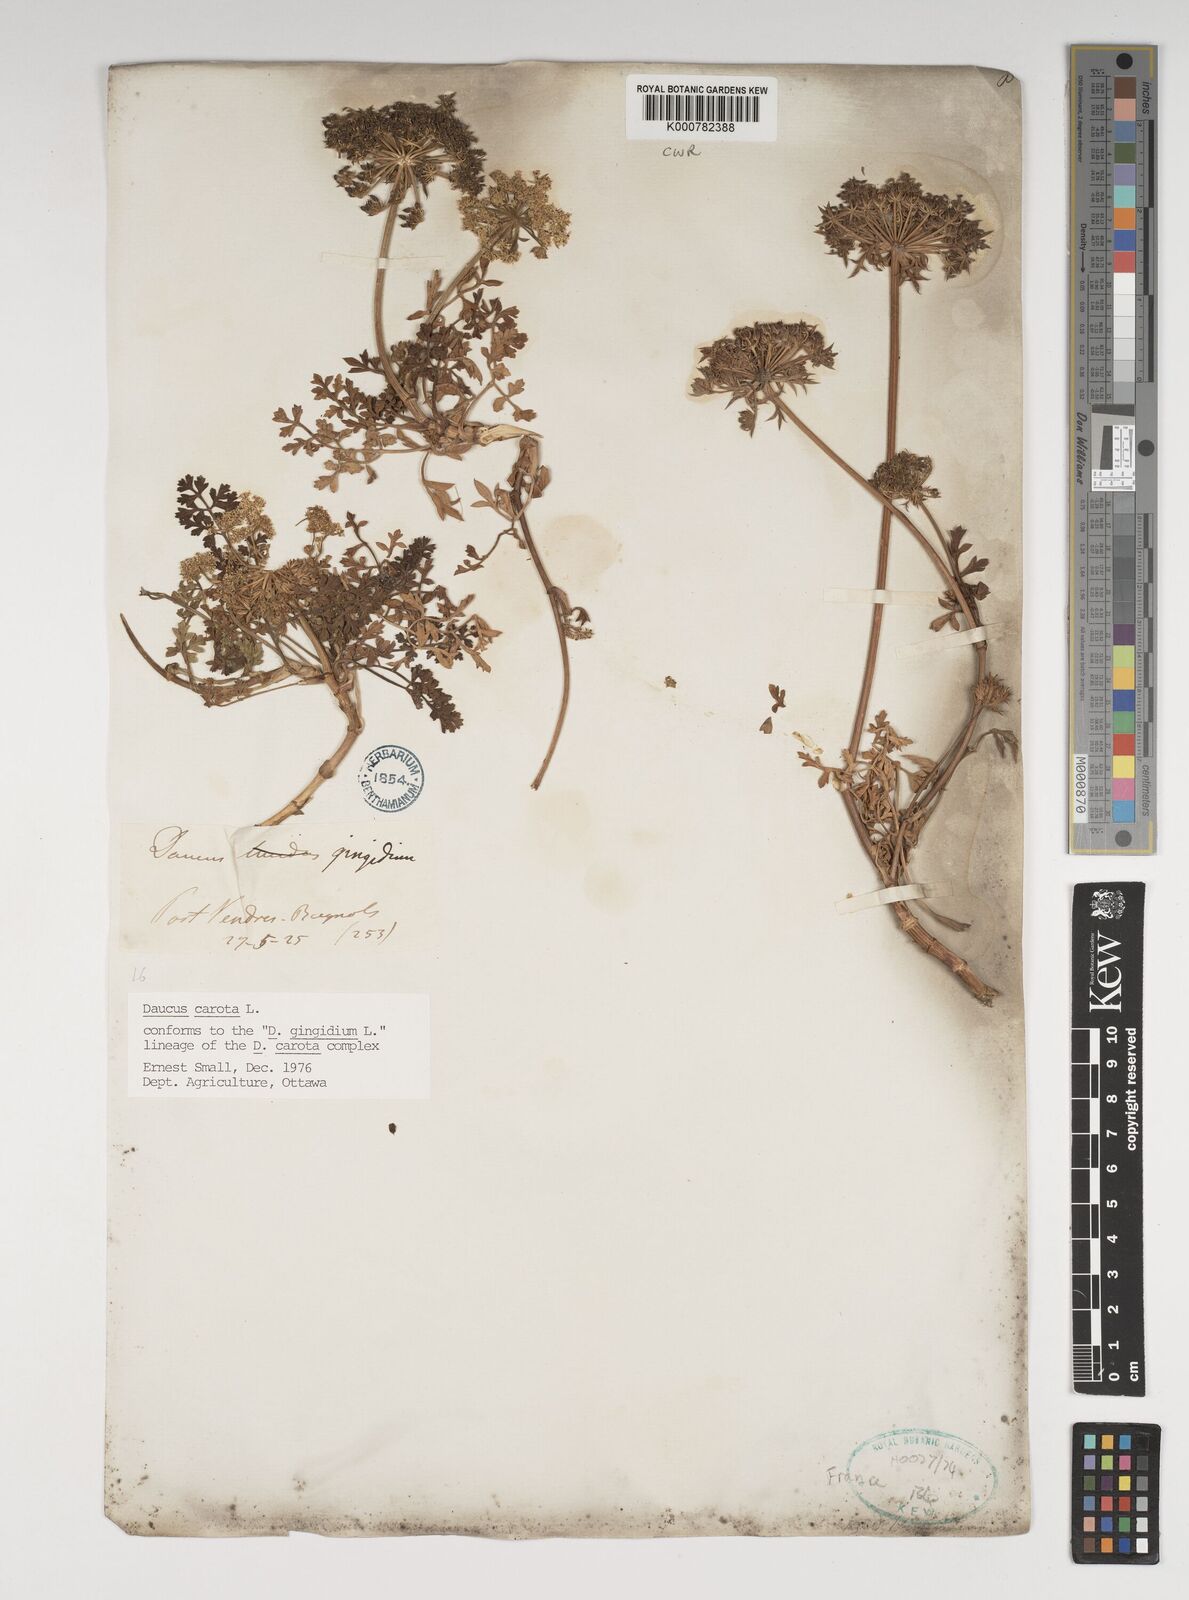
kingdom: Plantae
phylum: Tracheophyta
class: Magnoliopsida
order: Apiales
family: Apiaceae
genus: Daucus
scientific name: Daucus carota
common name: Wild carrot
